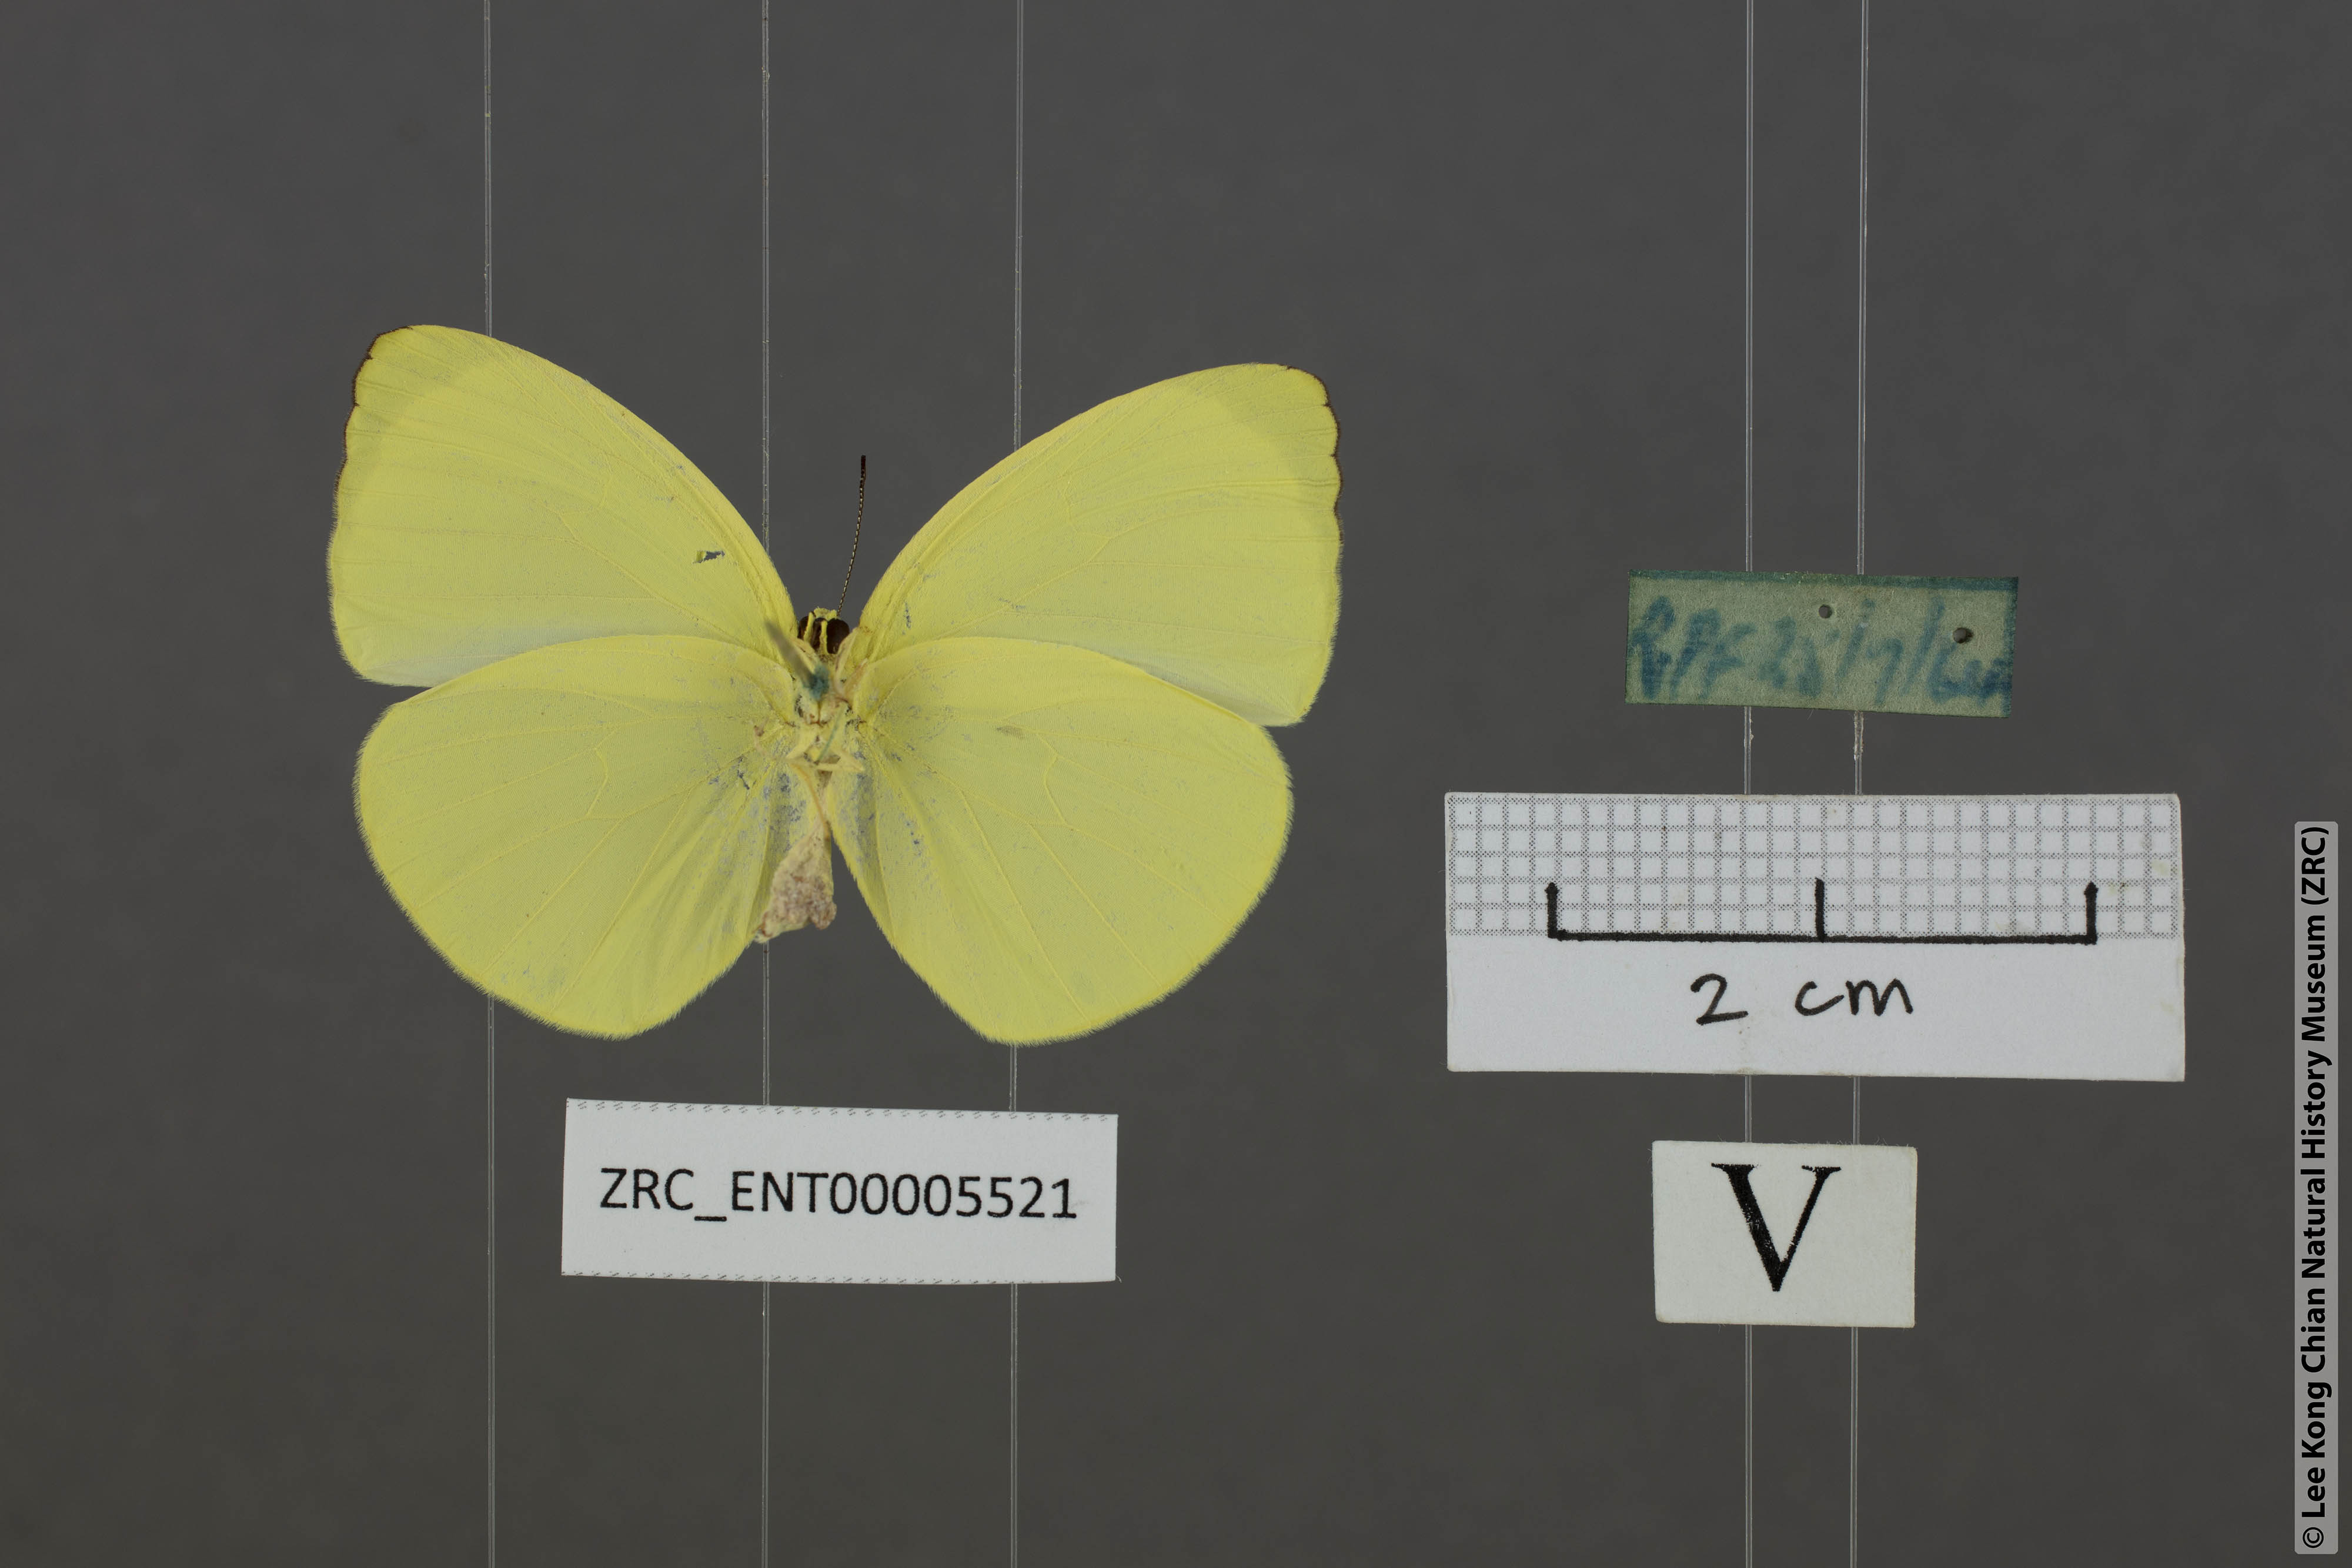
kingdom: Animalia
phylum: Arthropoda
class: Insecta
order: Lepidoptera
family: Pieridae
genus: Gandaca
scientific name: Gandaca harina
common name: Tree yellow
